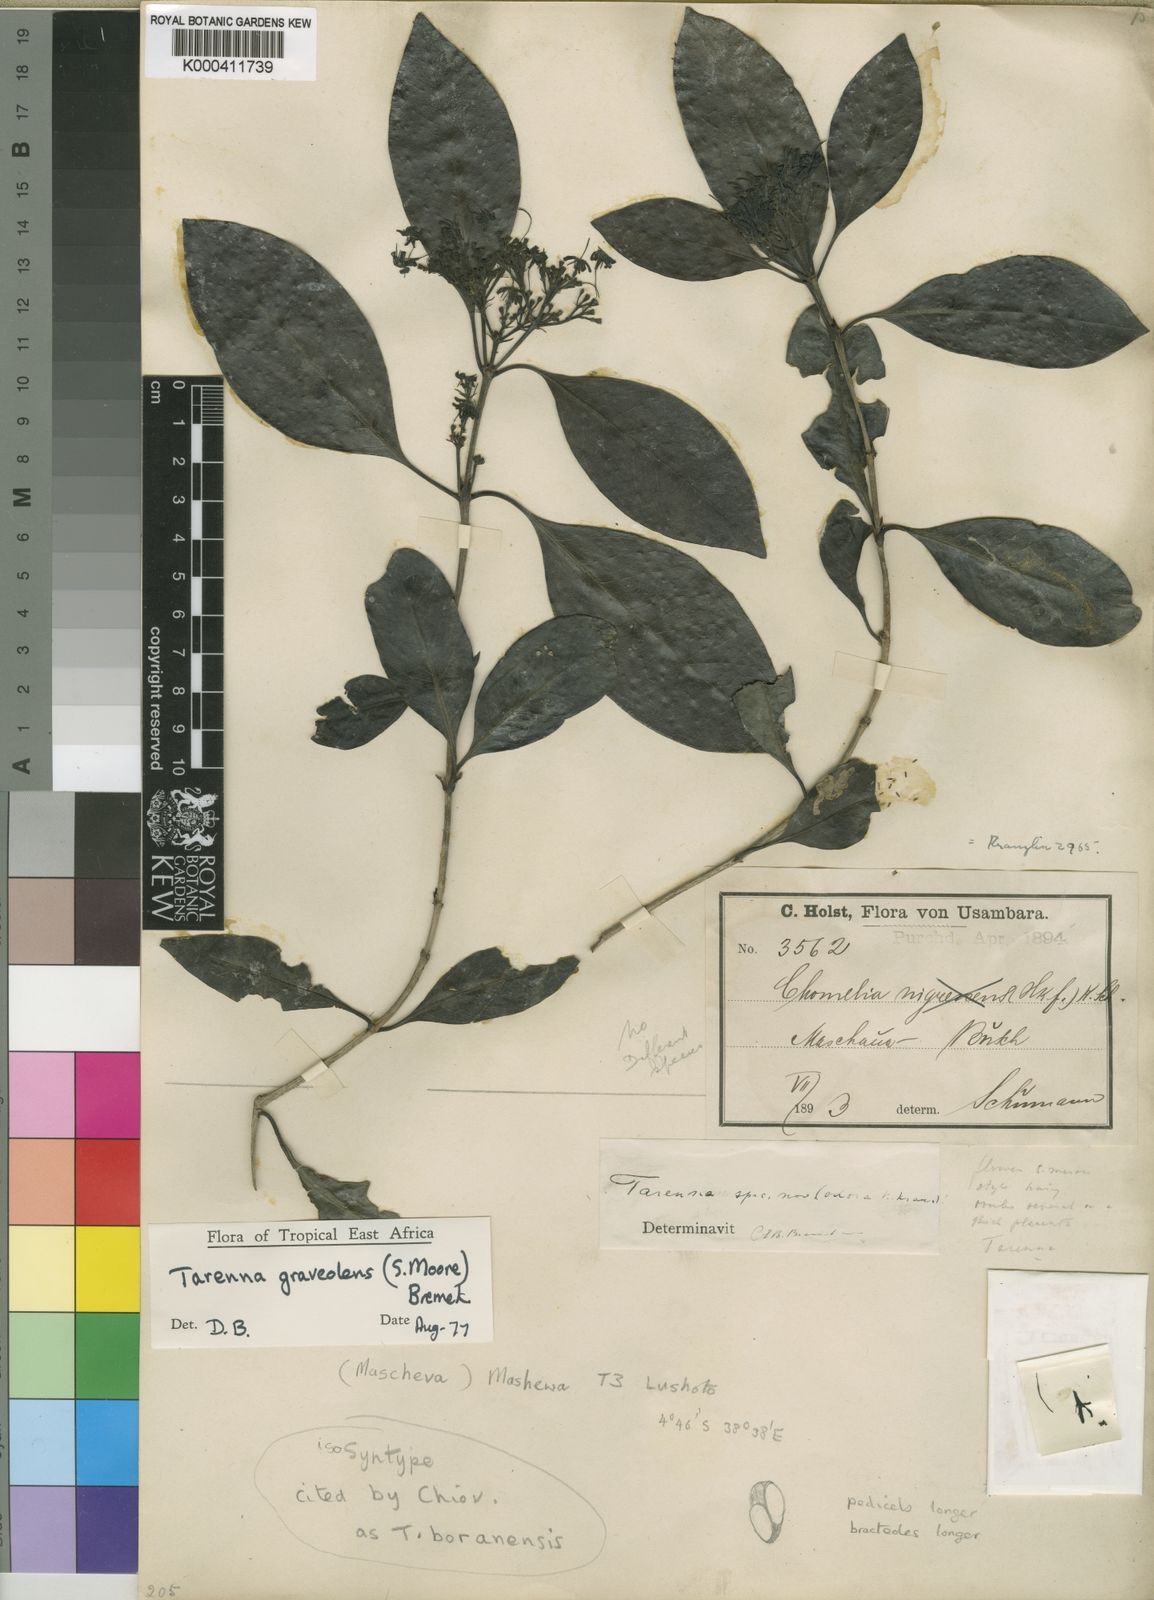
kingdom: Plantae
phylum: Tracheophyta
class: Magnoliopsida
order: Gentianales
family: Rubiaceae
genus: Coptosperma
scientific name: Coptosperma graveolens
